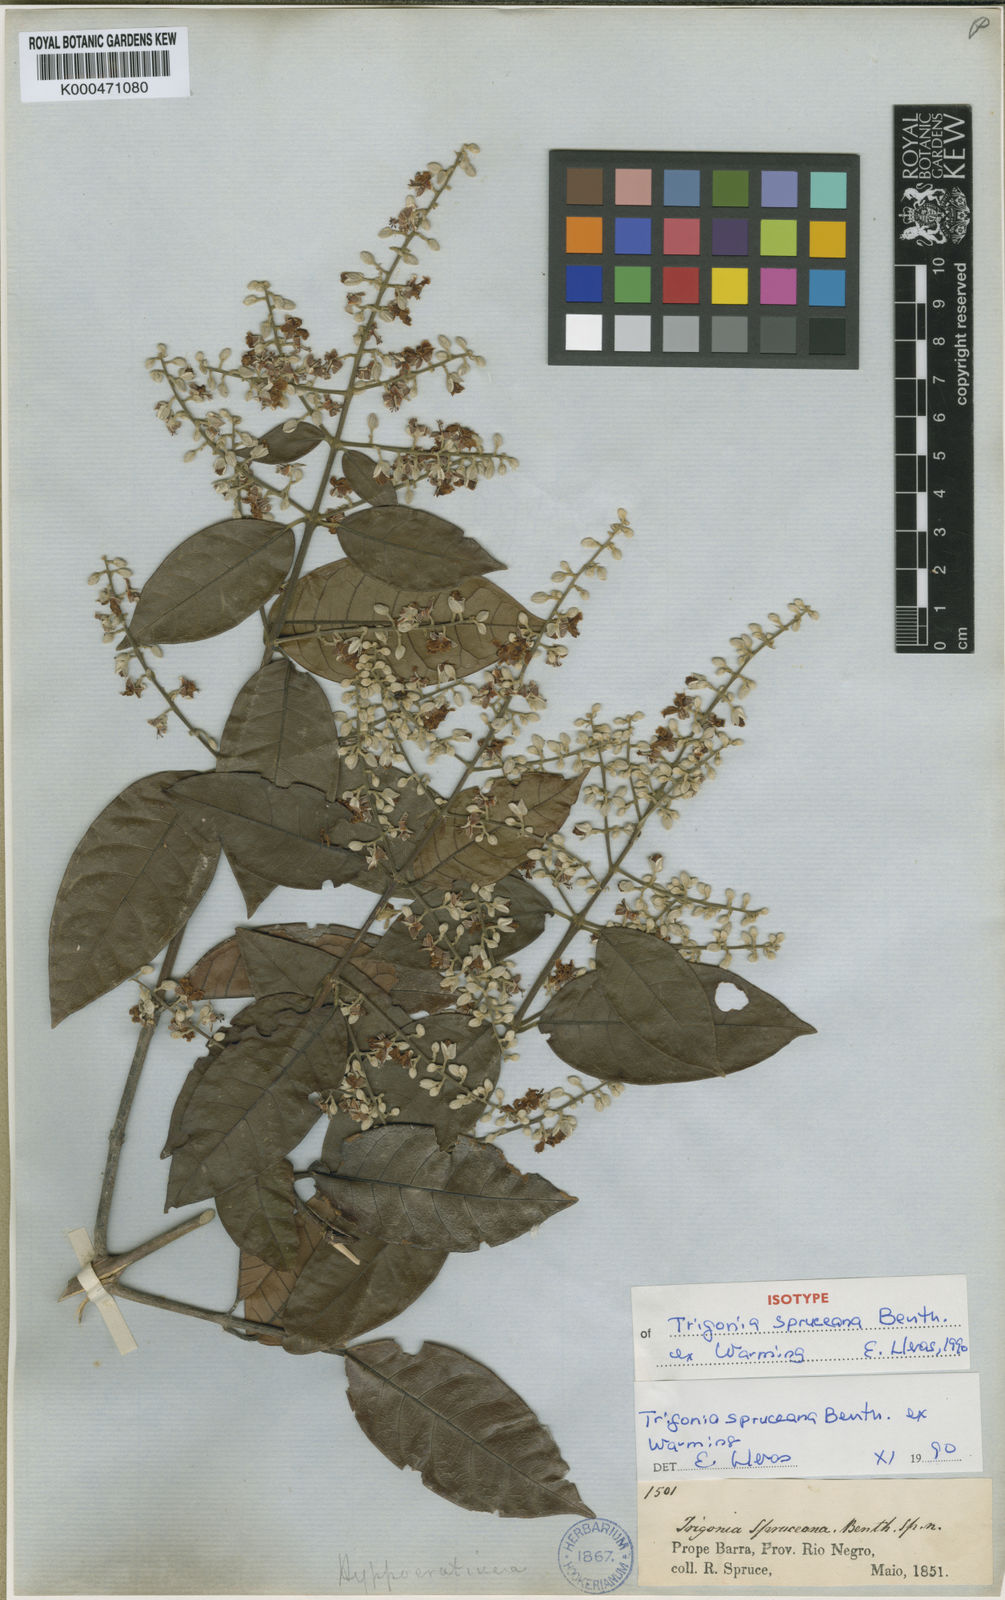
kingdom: Plantae
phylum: Tracheophyta
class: Magnoliopsida
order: Malpighiales
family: Trigoniaceae
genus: Trigonia
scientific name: Trigonia spruceana
